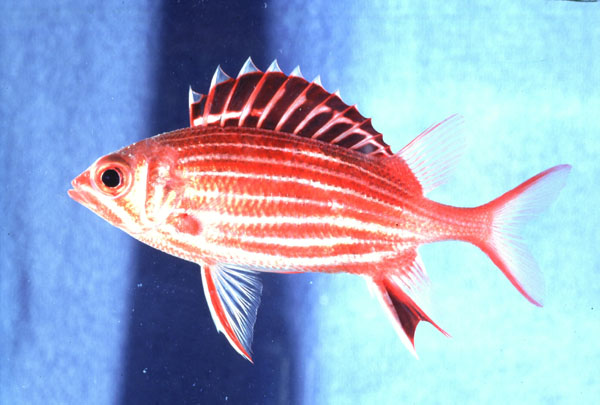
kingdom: Animalia
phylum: Chordata
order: Beryciformes
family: Holocentridae
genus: Sargocentron
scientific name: Sargocentron diadema
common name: Crown squirrelfish
